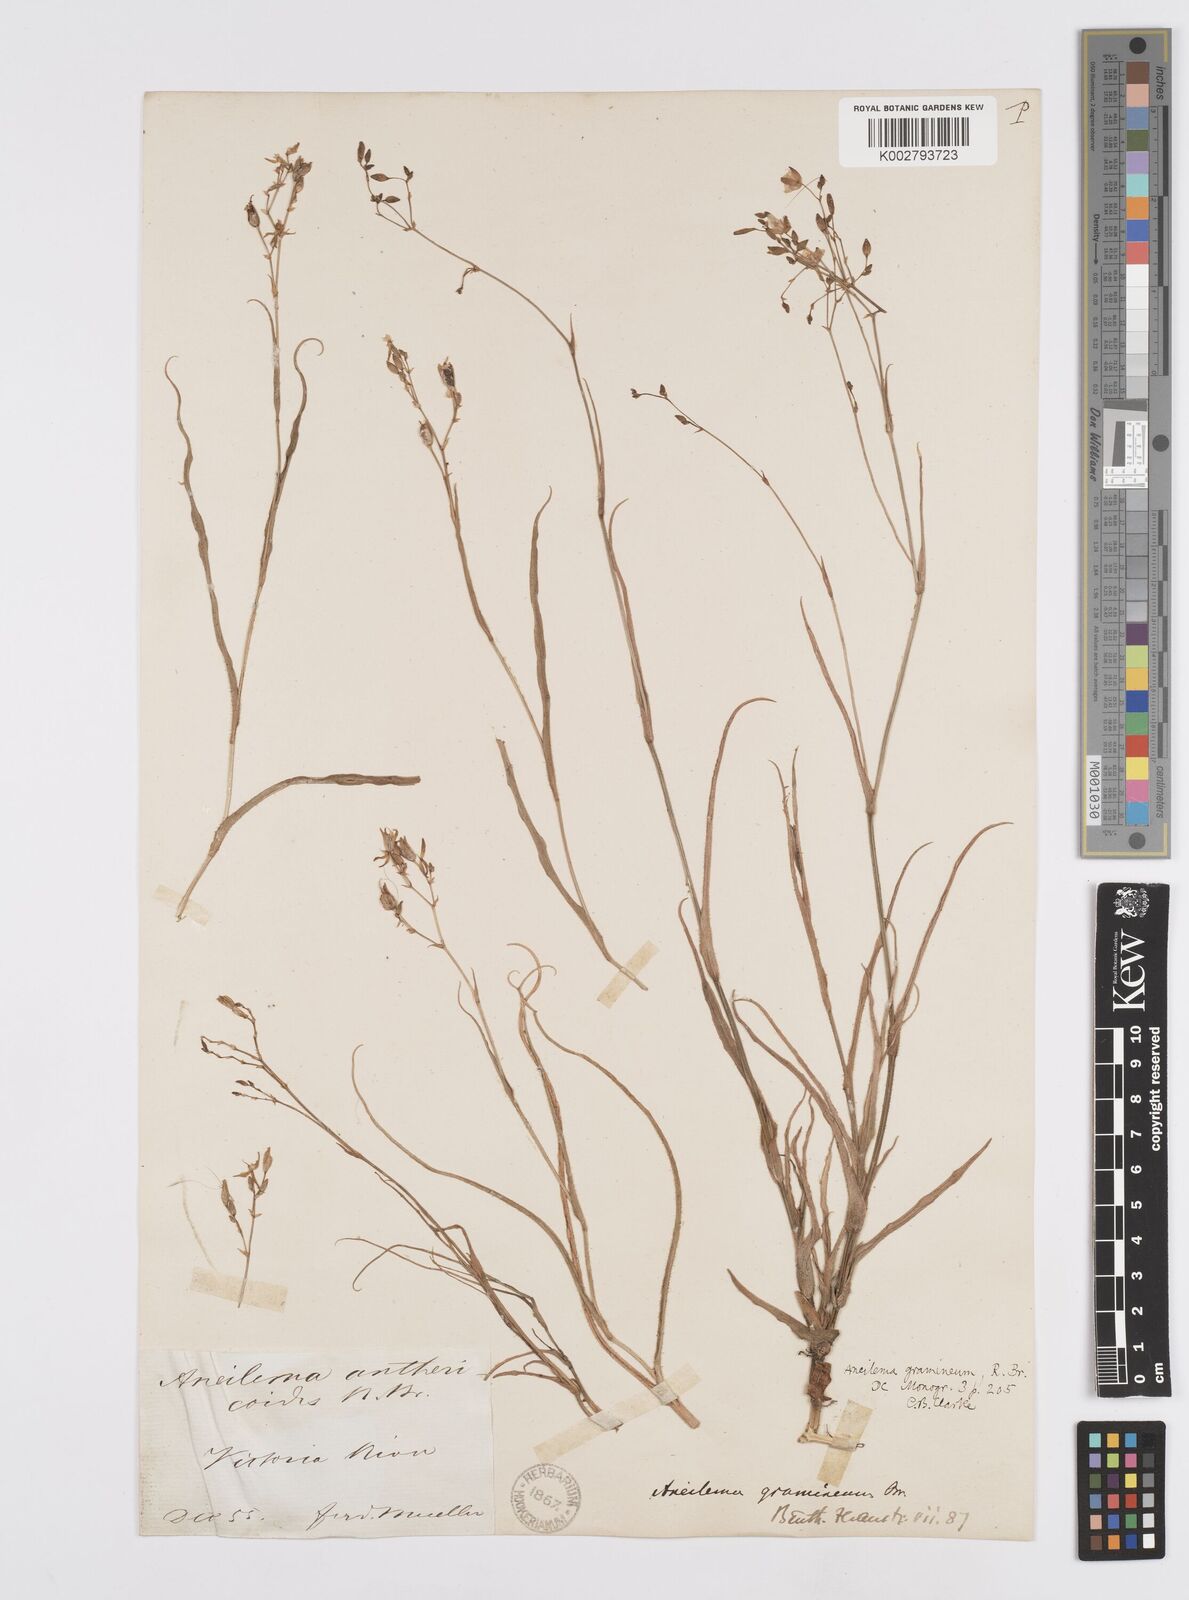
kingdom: Plantae
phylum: Tracheophyta
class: Liliopsida
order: Commelinales
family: Commelinaceae
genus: Murdannia
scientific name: Murdannia graminea
